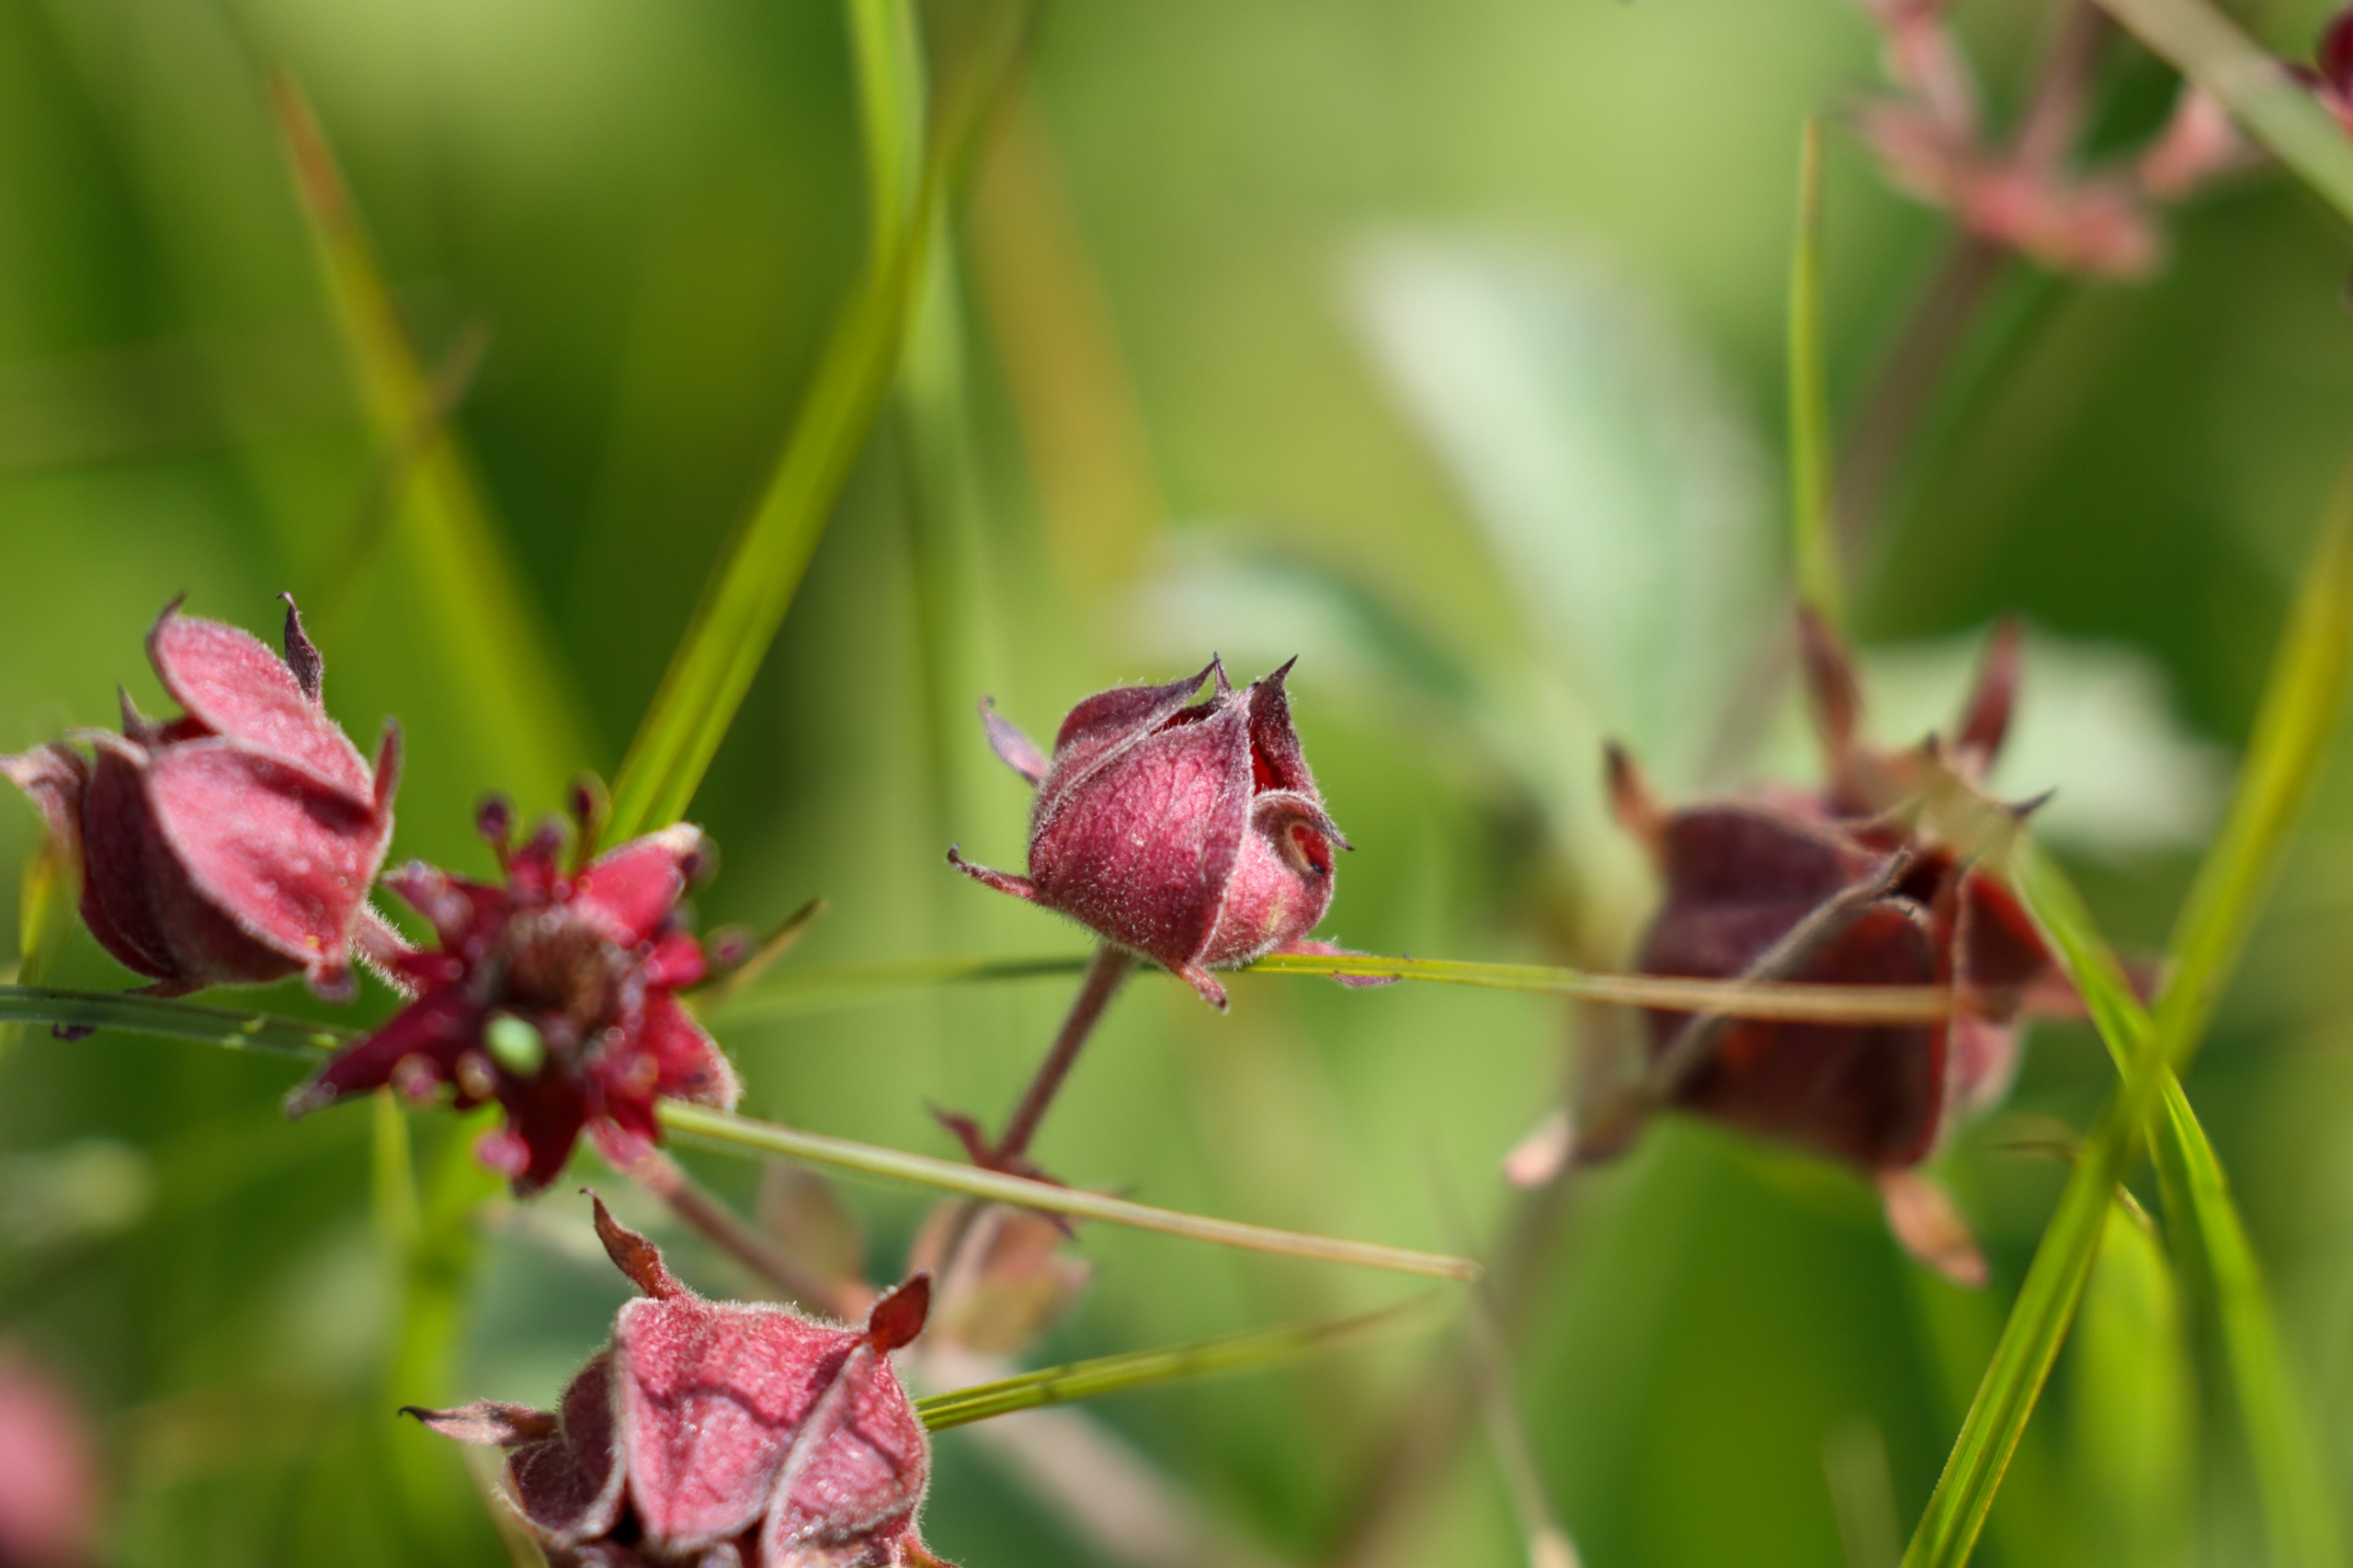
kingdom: Plantae
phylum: Tracheophyta
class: Magnoliopsida
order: Rosales
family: Rosaceae
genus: Comarum
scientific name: Comarum palustre
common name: Kragefod
